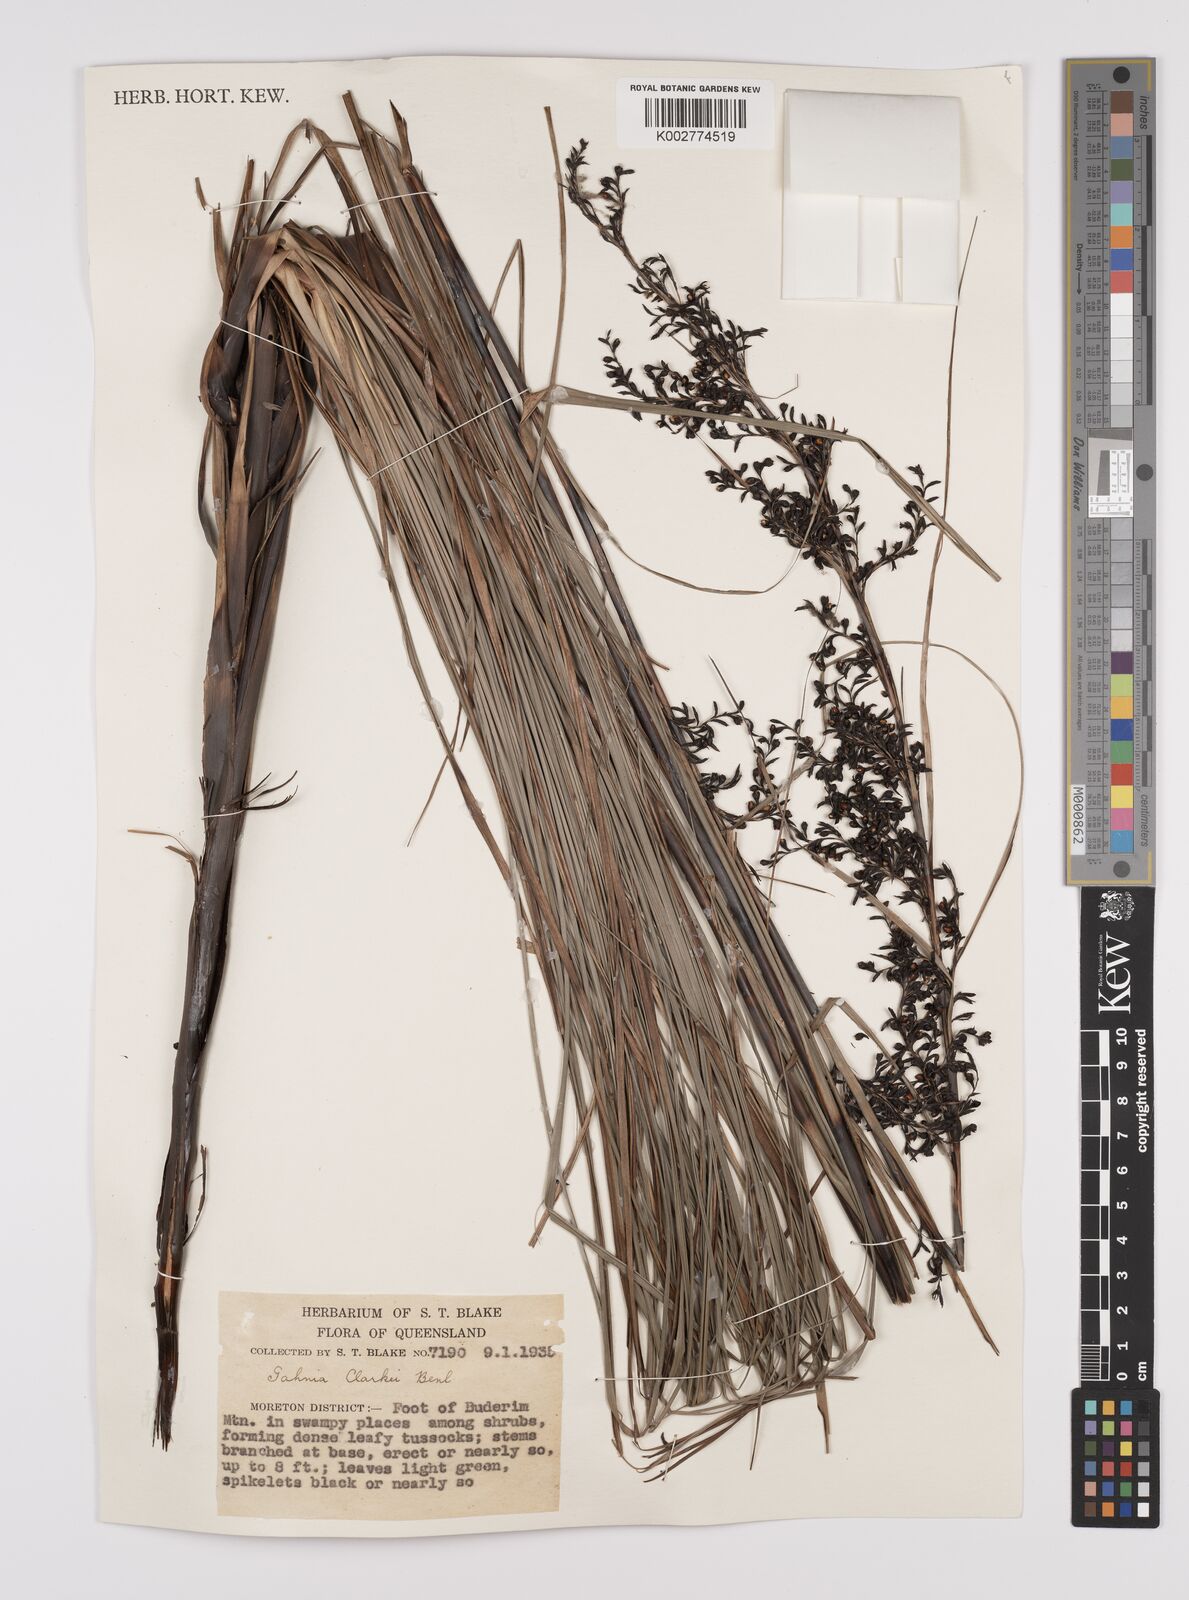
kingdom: Plantae
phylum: Tracheophyta
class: Liliopsida
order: Poales
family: Cyperaceae
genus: Gahnia
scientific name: Gahnia clarkei
